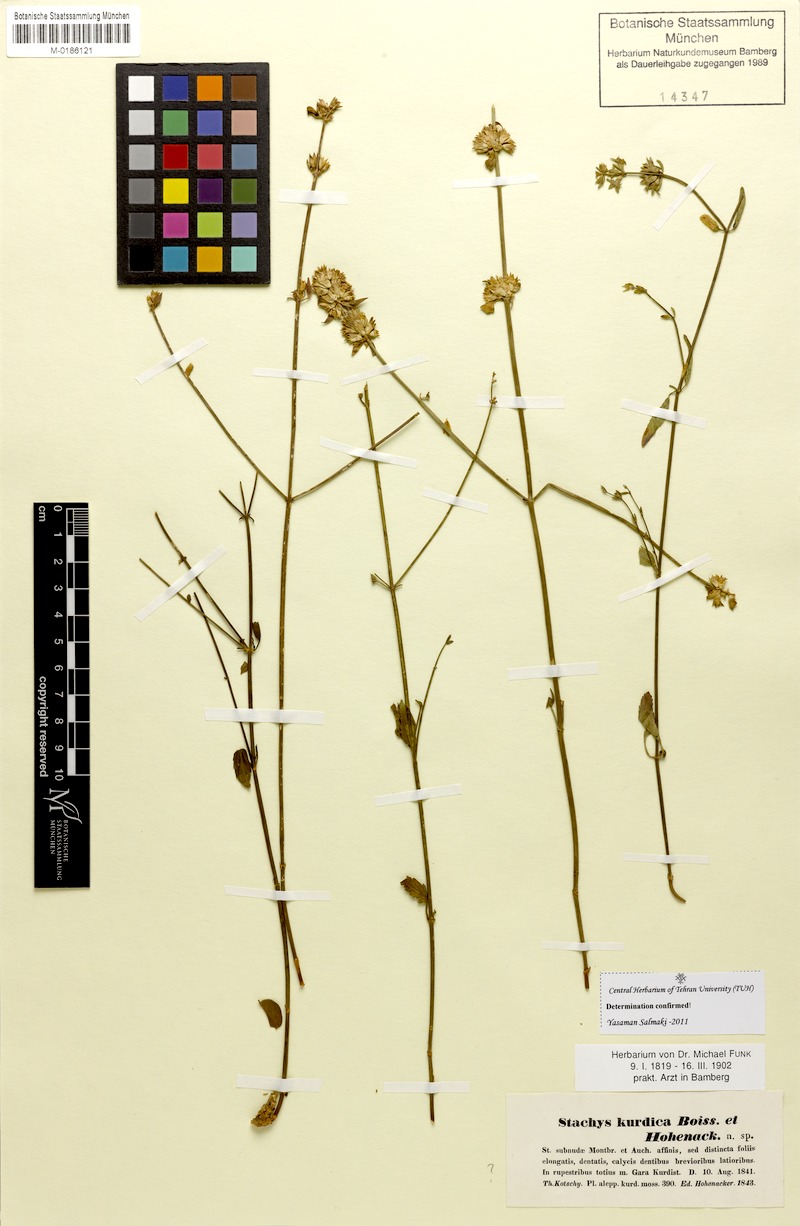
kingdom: Plantae
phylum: Tracheophyta
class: Magnoliopsida
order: Lamiales
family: Lamiaceae
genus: Stachys
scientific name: Stachys kurdica
